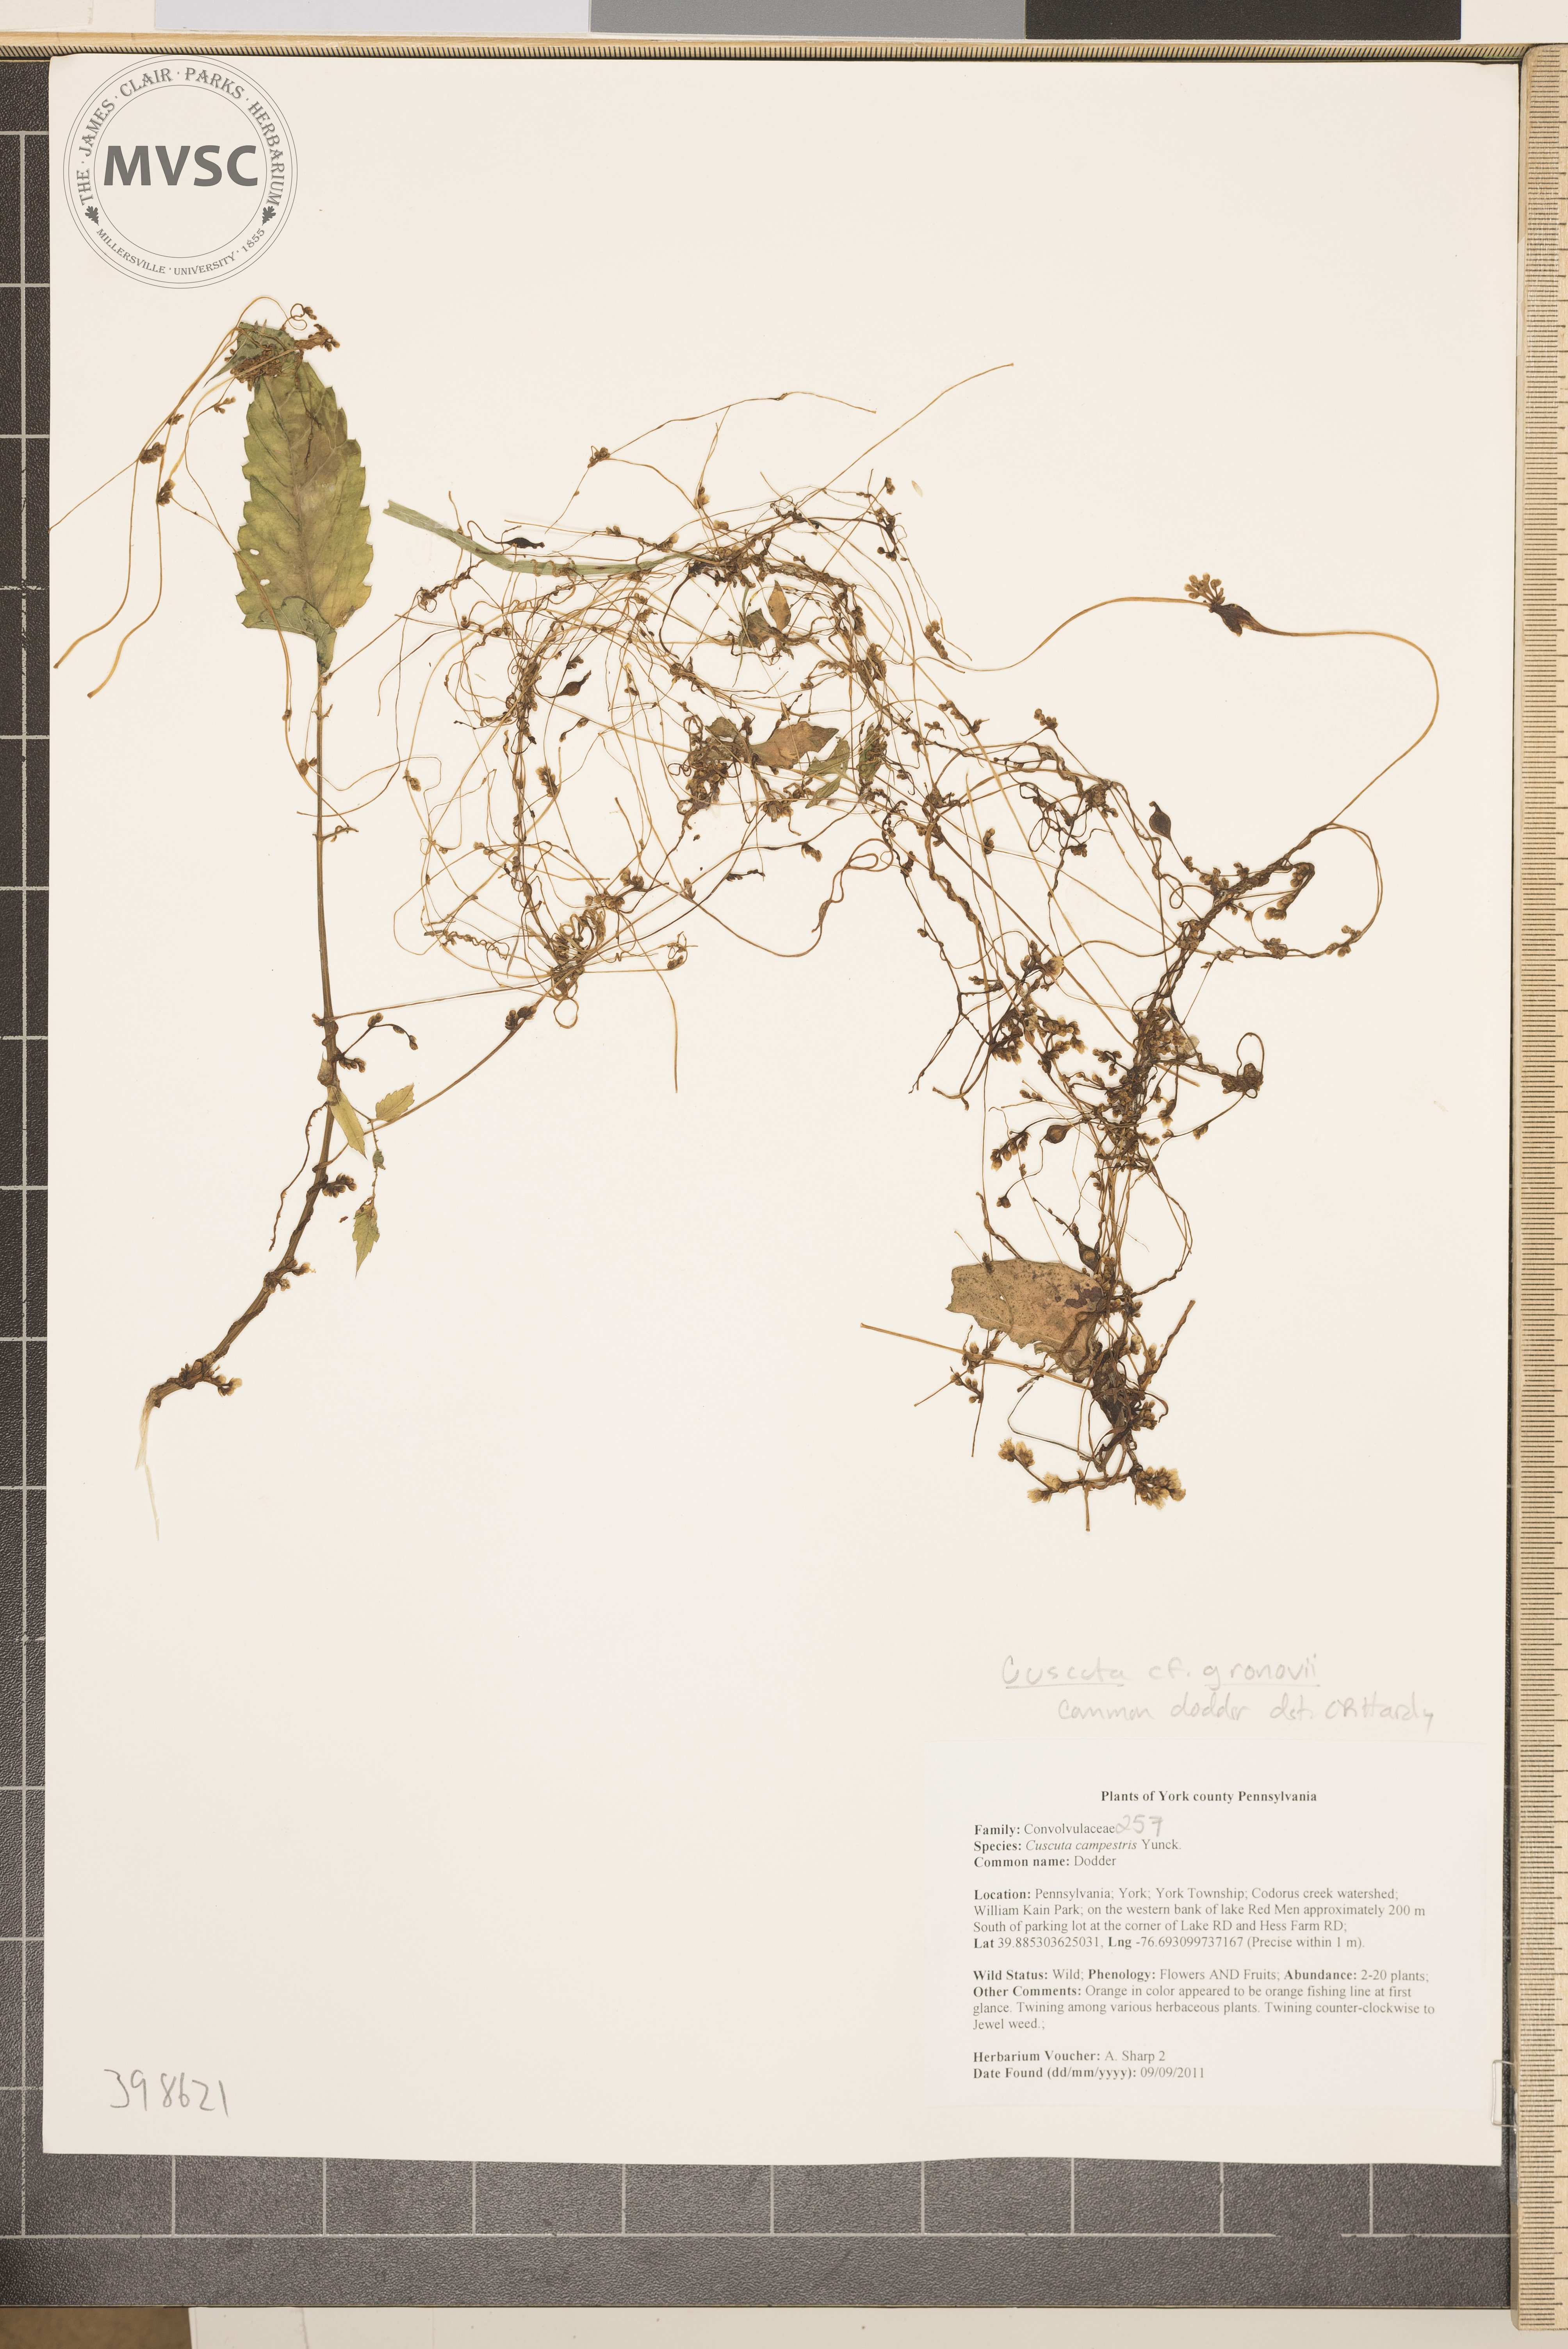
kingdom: Plantae
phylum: Tracheophyta
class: Magnoliopsida
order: Solanales
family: Convolvulaceae
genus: Cuscuta
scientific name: Cuscuta gronovii
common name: Dodder
